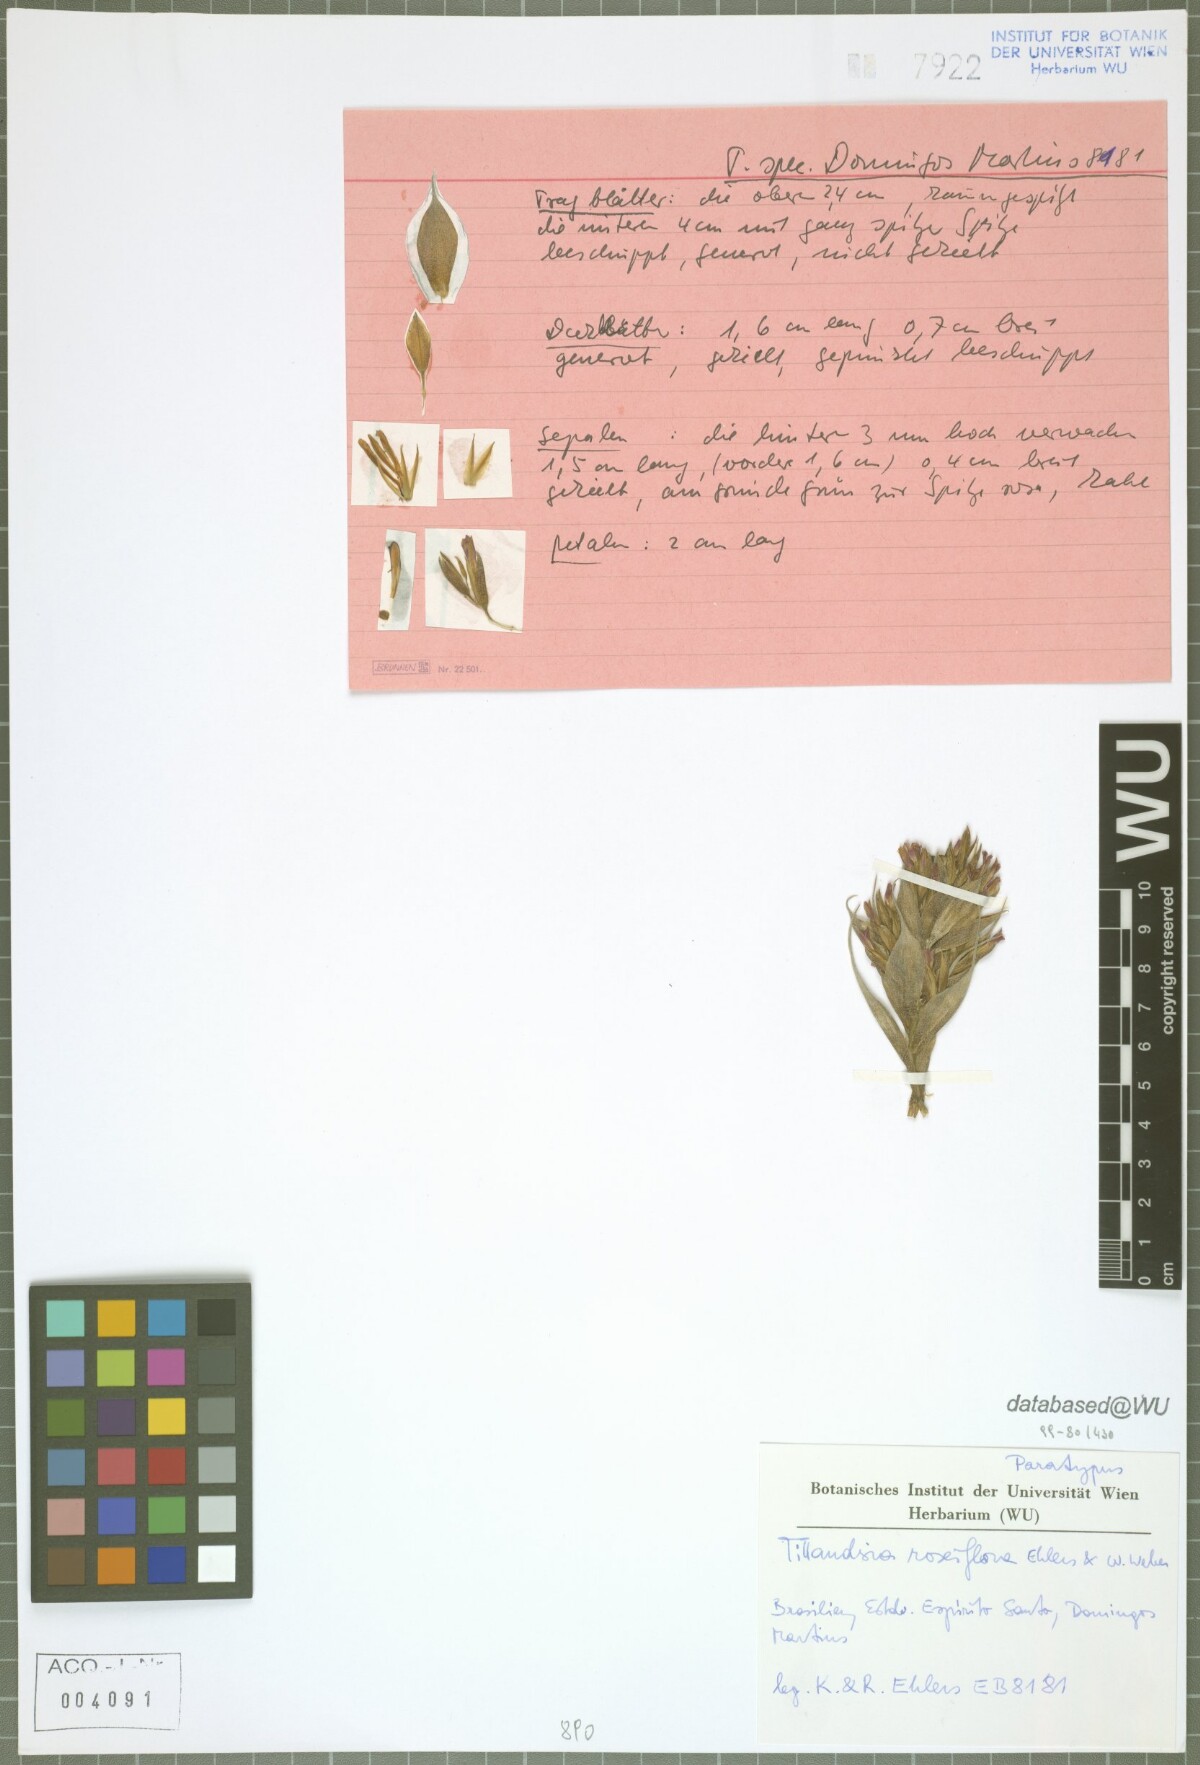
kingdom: Plantae
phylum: Tracheophyta
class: Liliopsida
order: Poales
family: Bromeliaceae
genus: Tillandsia
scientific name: Tillandsia roseiflora
